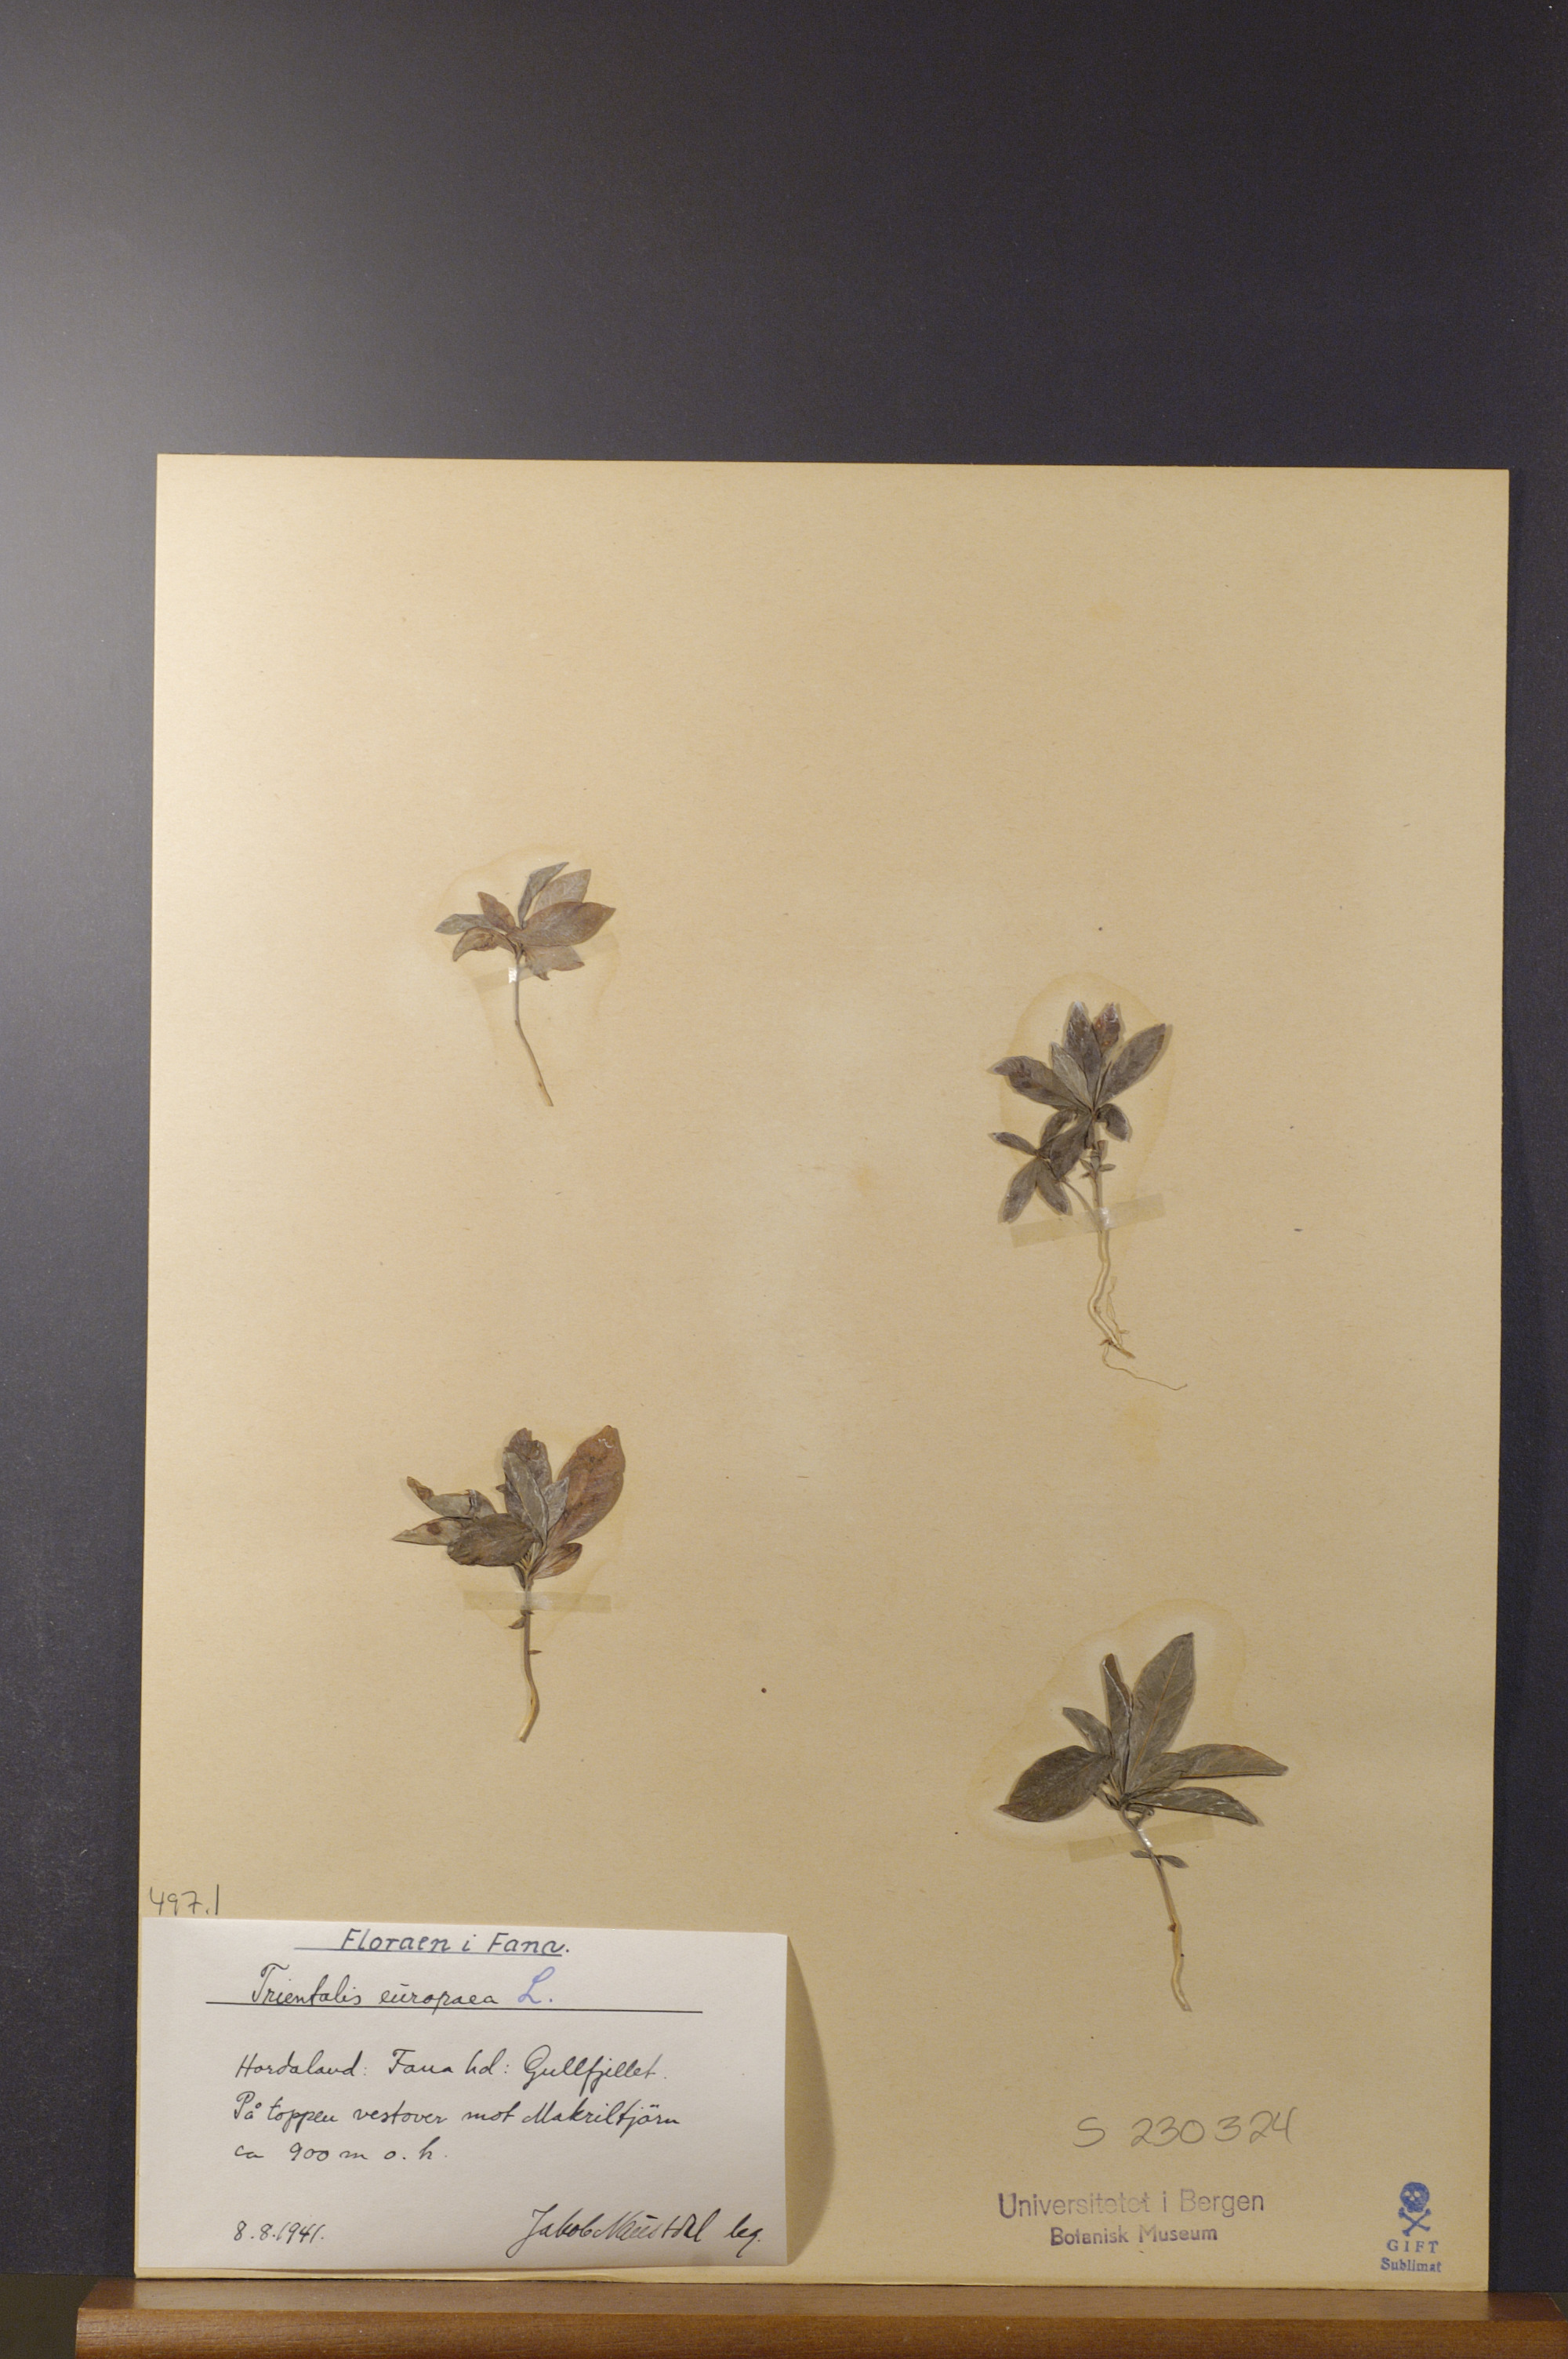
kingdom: Plantae
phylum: Tracheophyta
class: Magnoliopsida
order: Ericales
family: Primulaceae
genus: Lysimachia
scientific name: Lysimachia europaea
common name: Arctic starflower
